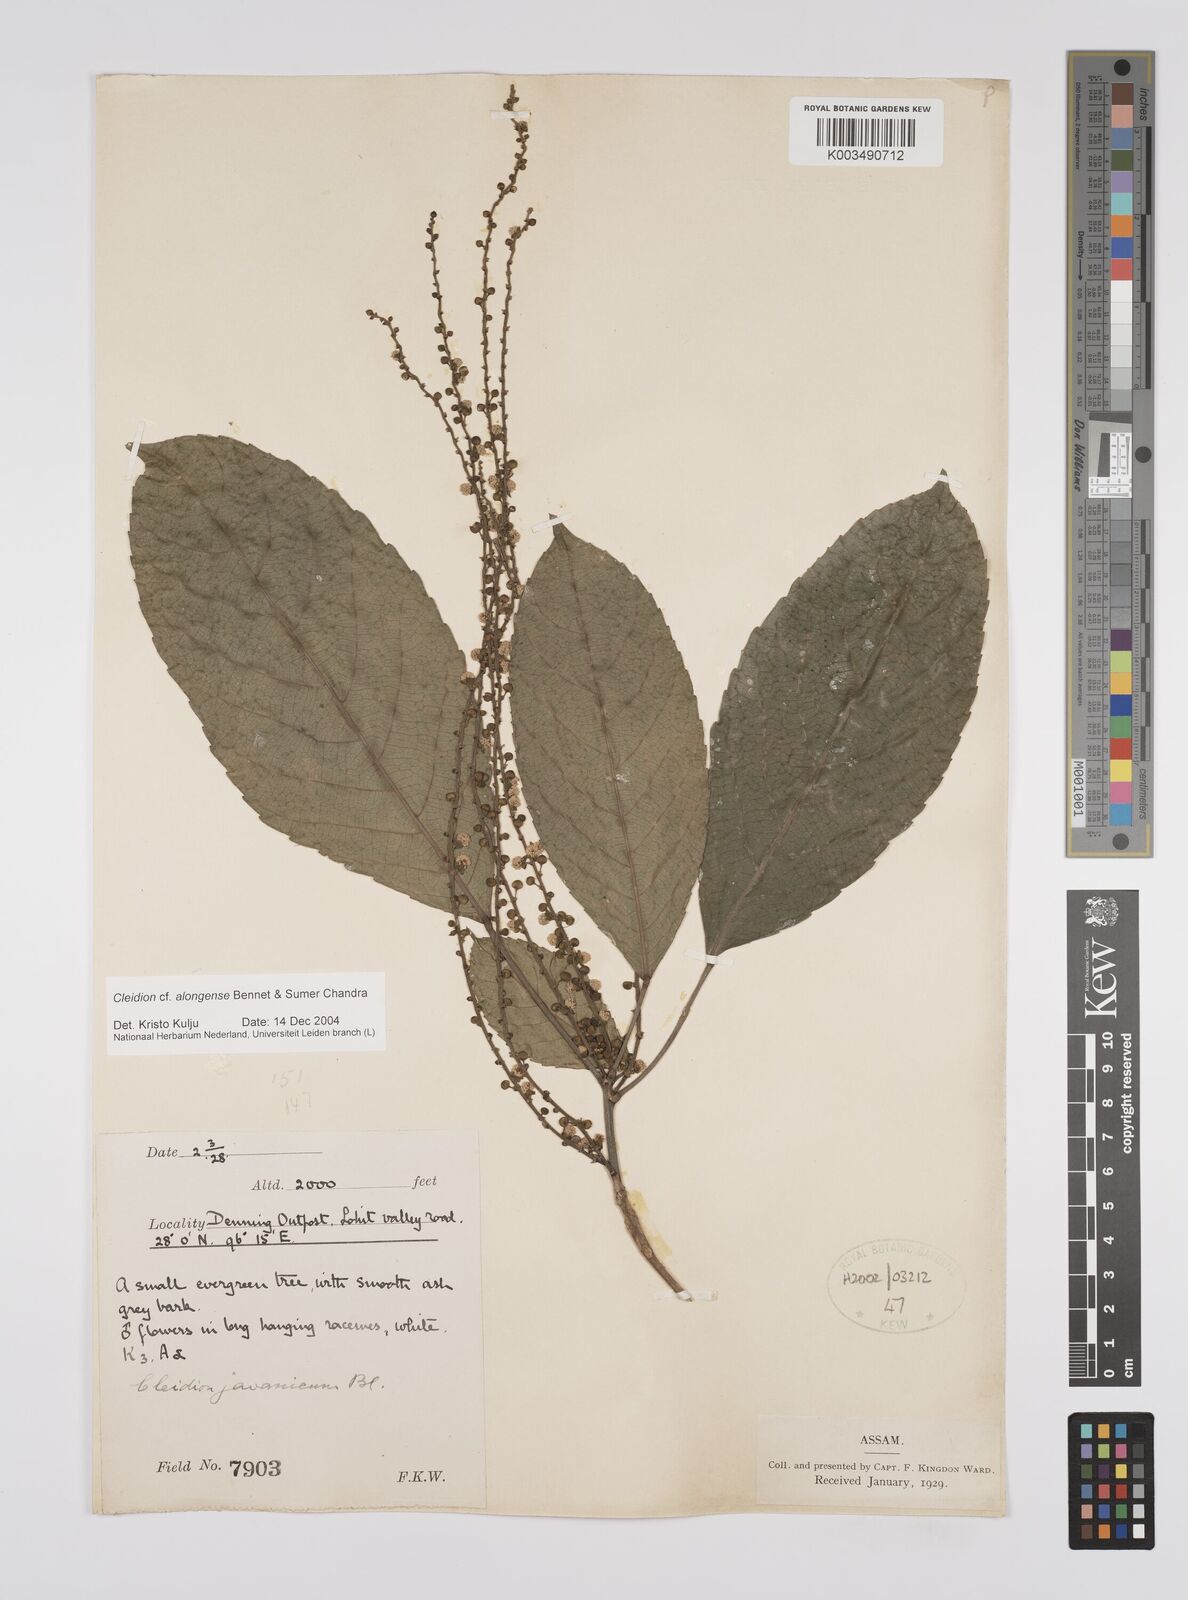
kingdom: Plantae
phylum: Tracheophyta
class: Magnoliopsida
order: Malpighiales
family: Euphorbiaceae
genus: Cleidion
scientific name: Cleidion javanicum
